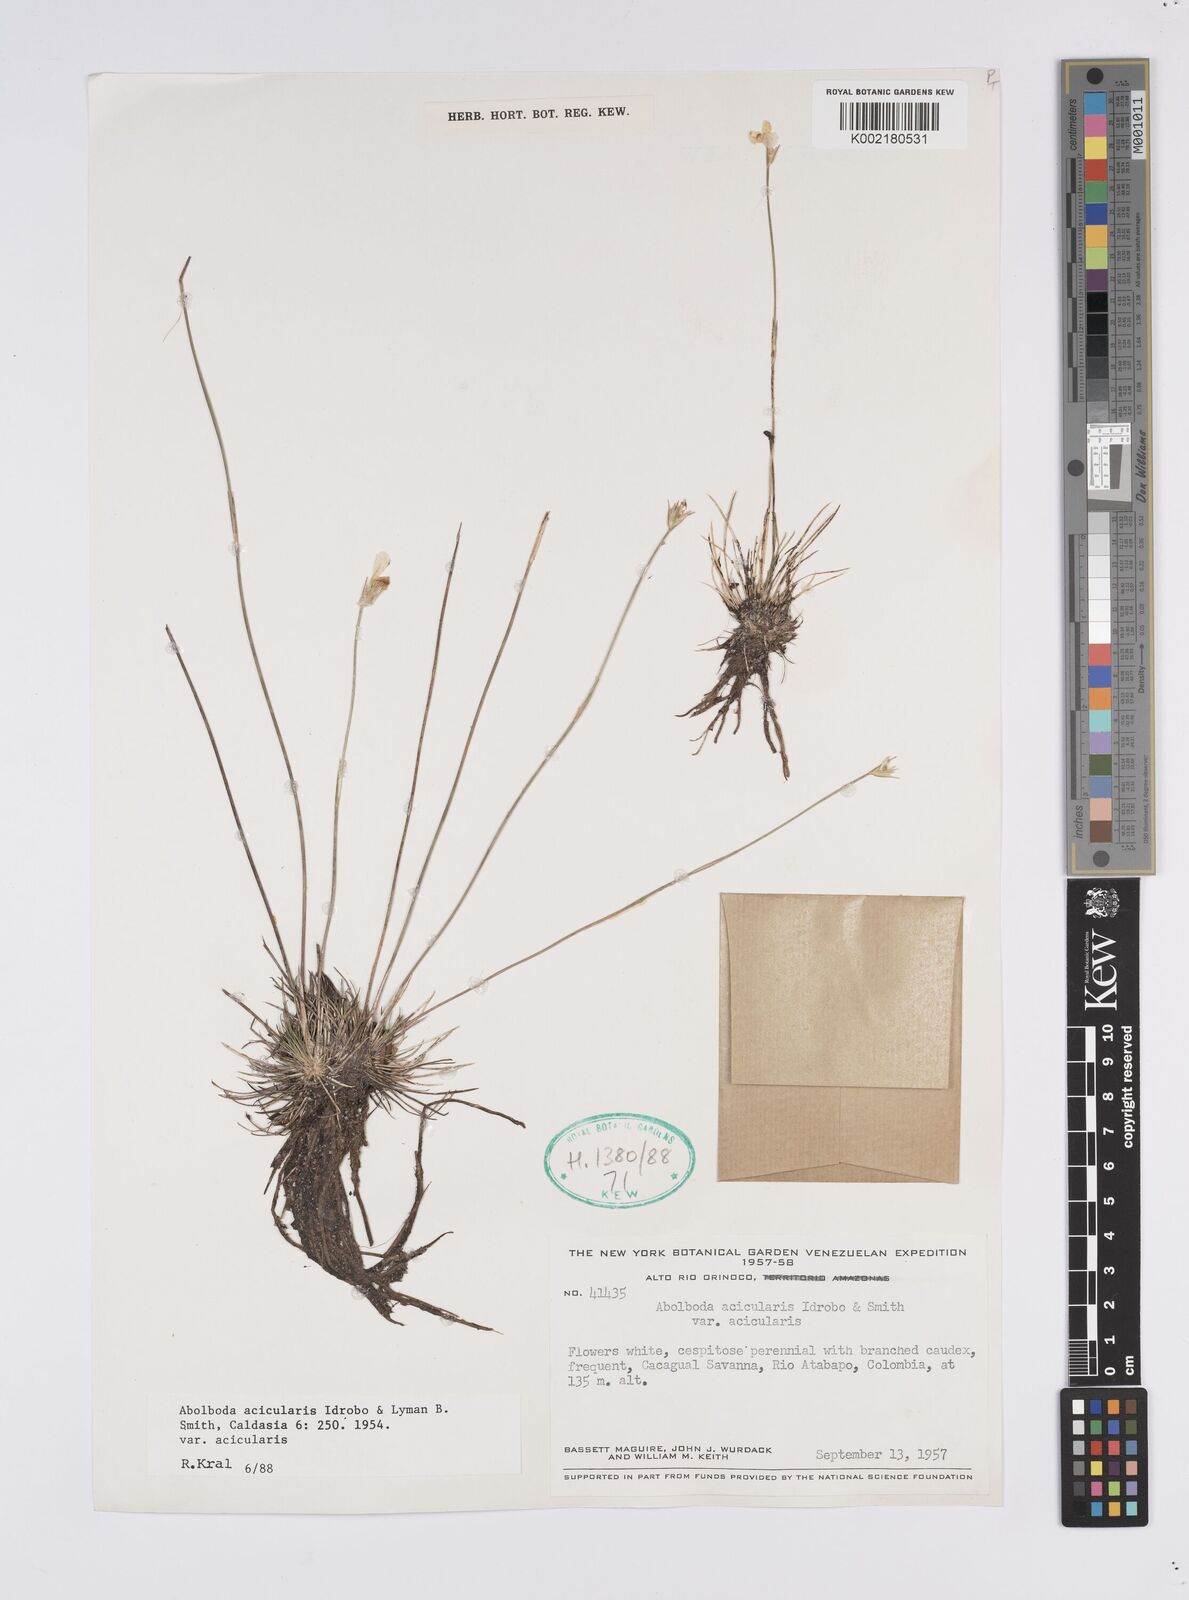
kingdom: Plantae
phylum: Tracheophyta
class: Liliopsida
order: Poales
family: Xyridaceae
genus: Abolboda
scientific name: Abolboda acicularis
